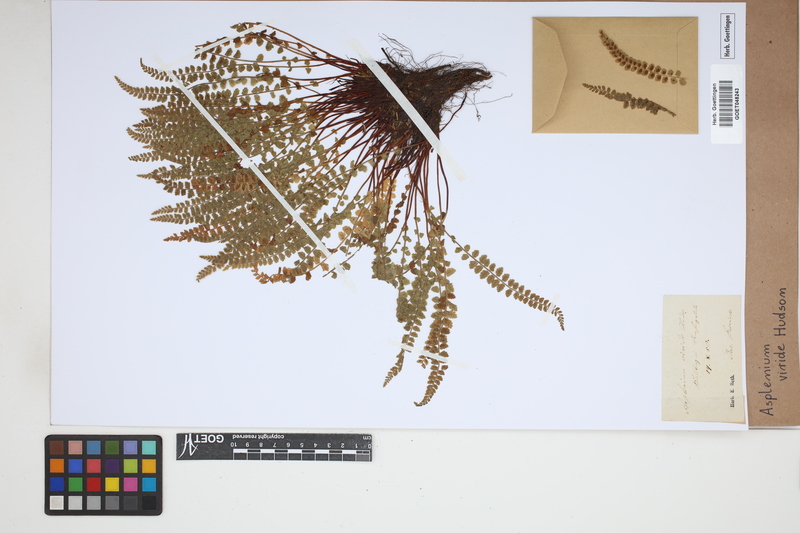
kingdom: Plantae
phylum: Tracheophyta
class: Polypodiopsida
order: Polypodiales
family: Aspleniaceae
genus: Asplenium
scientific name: Asplenium viride
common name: Green spleenwort
